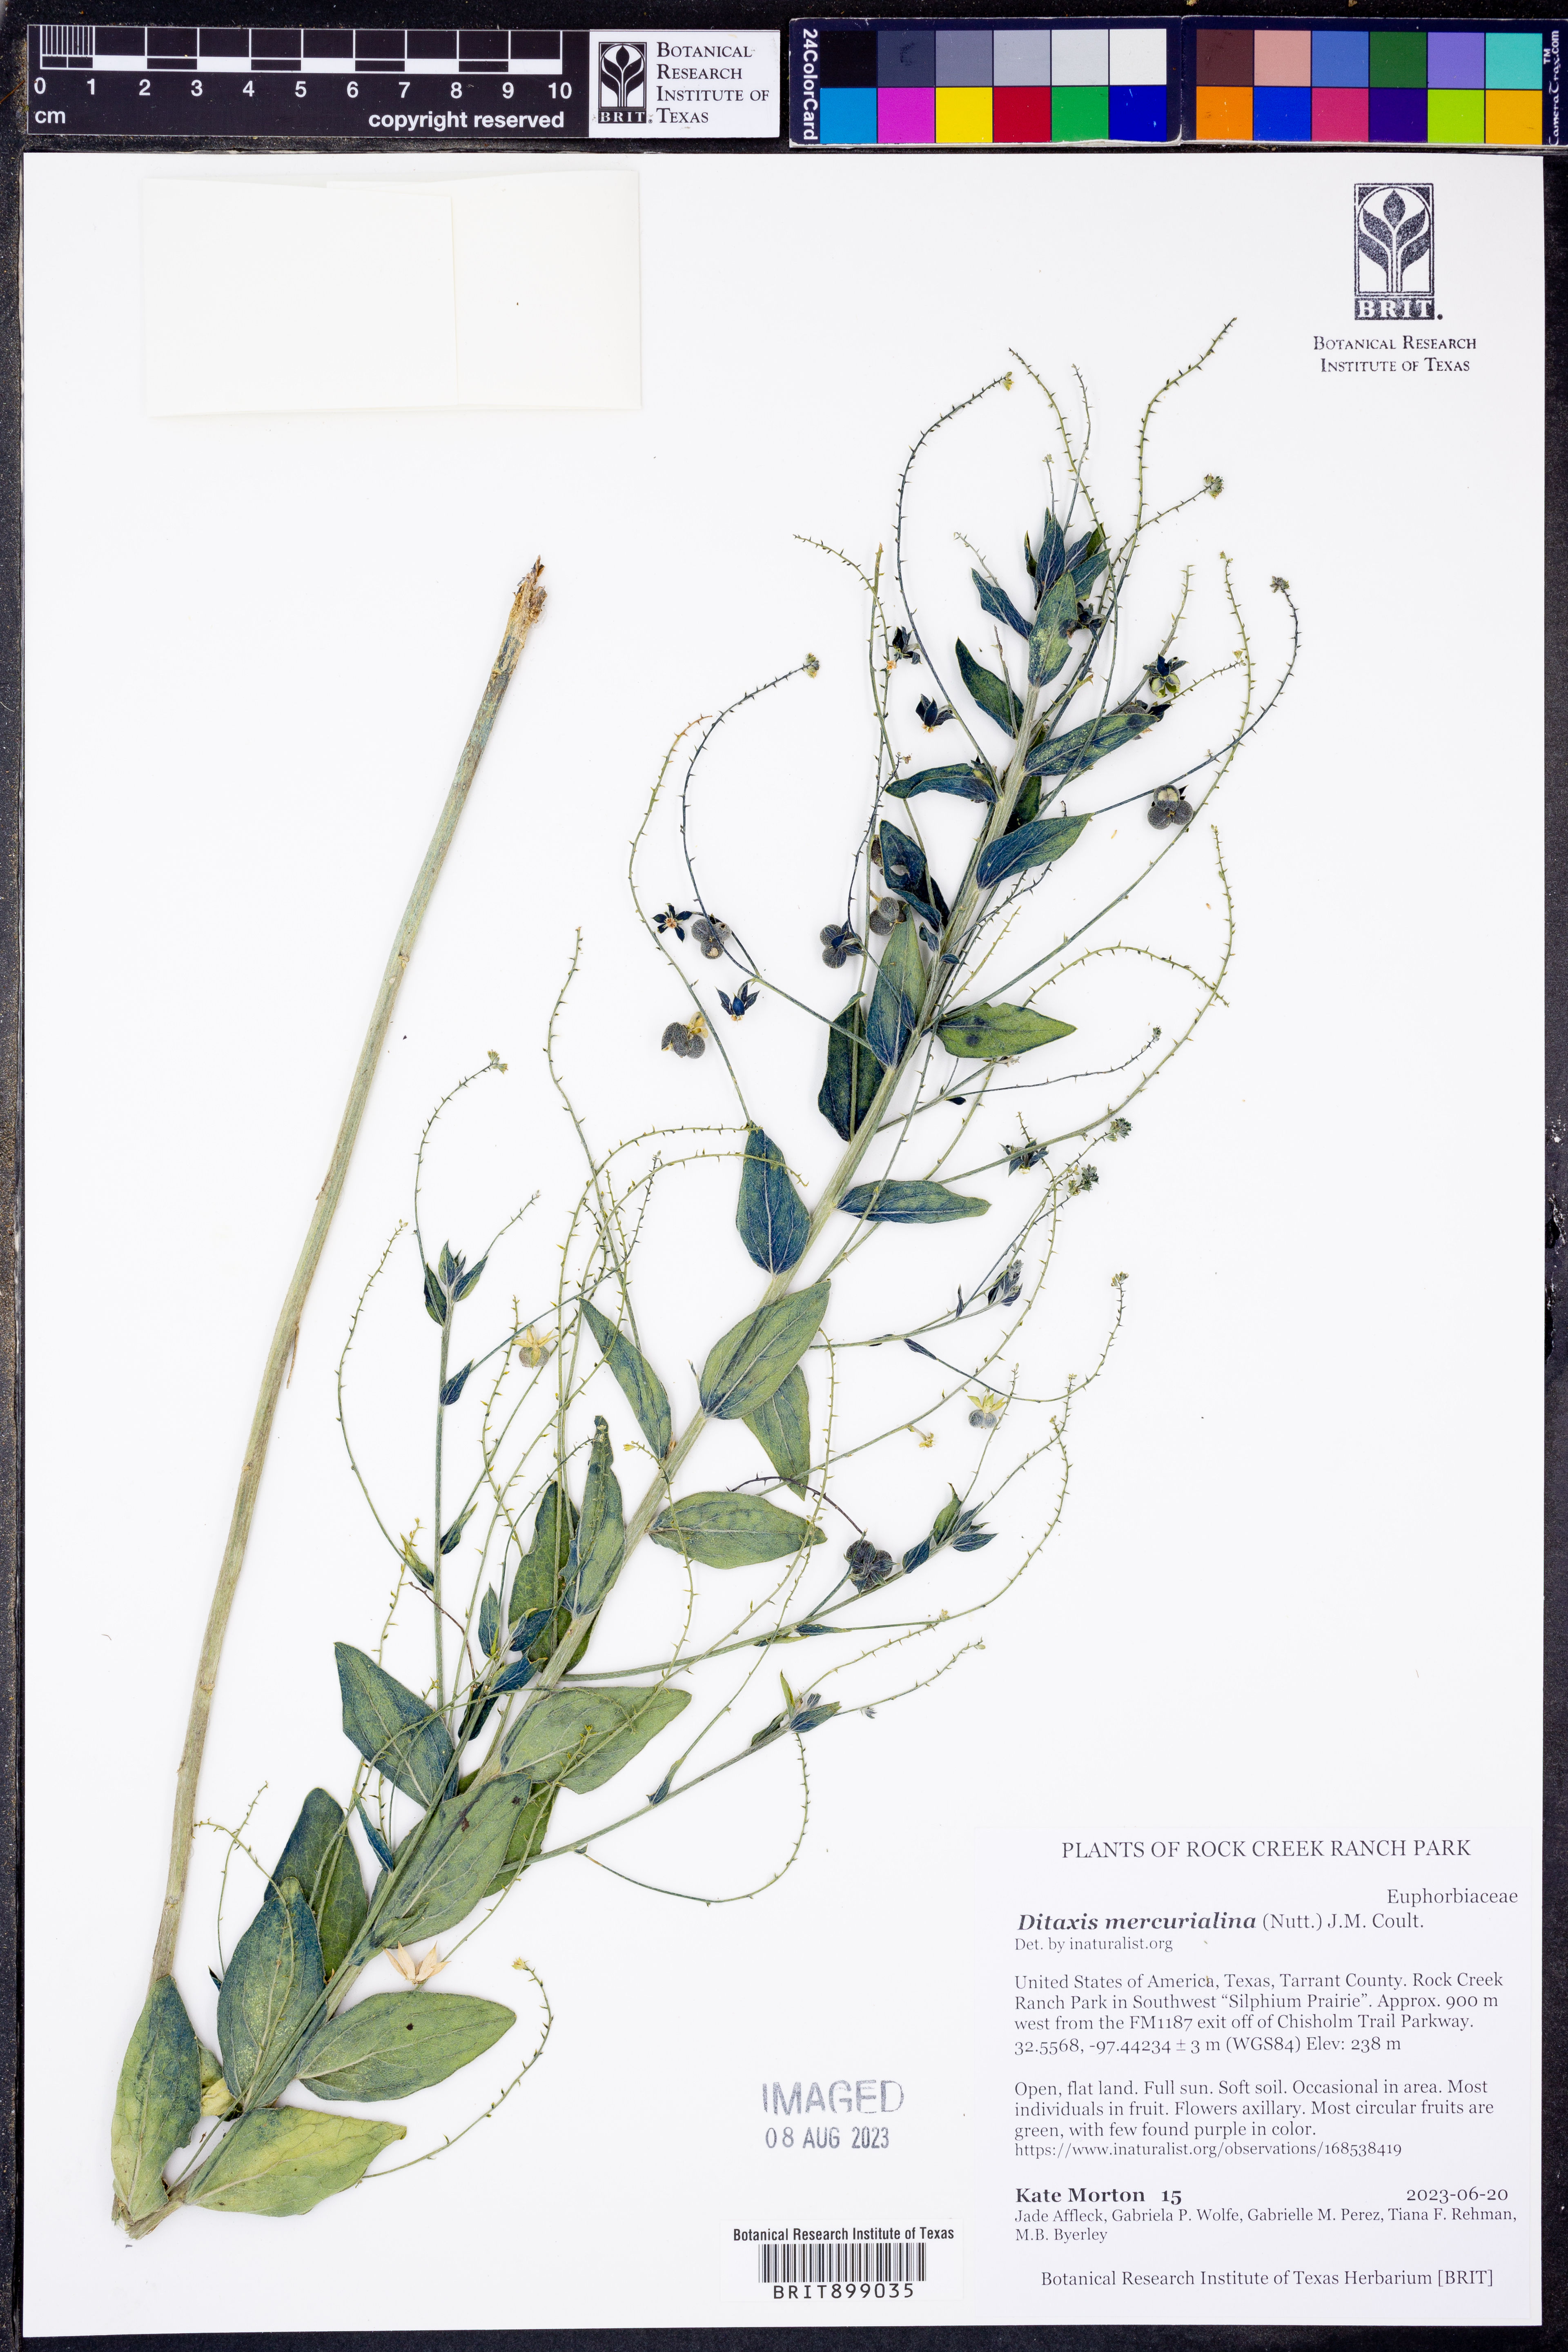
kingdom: Plantae
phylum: Tracheophyta
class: Magnoliopsida
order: Malpighiales
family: Euphorbiaceae
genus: Ditaxis
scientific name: Ditaxis mercurialina
